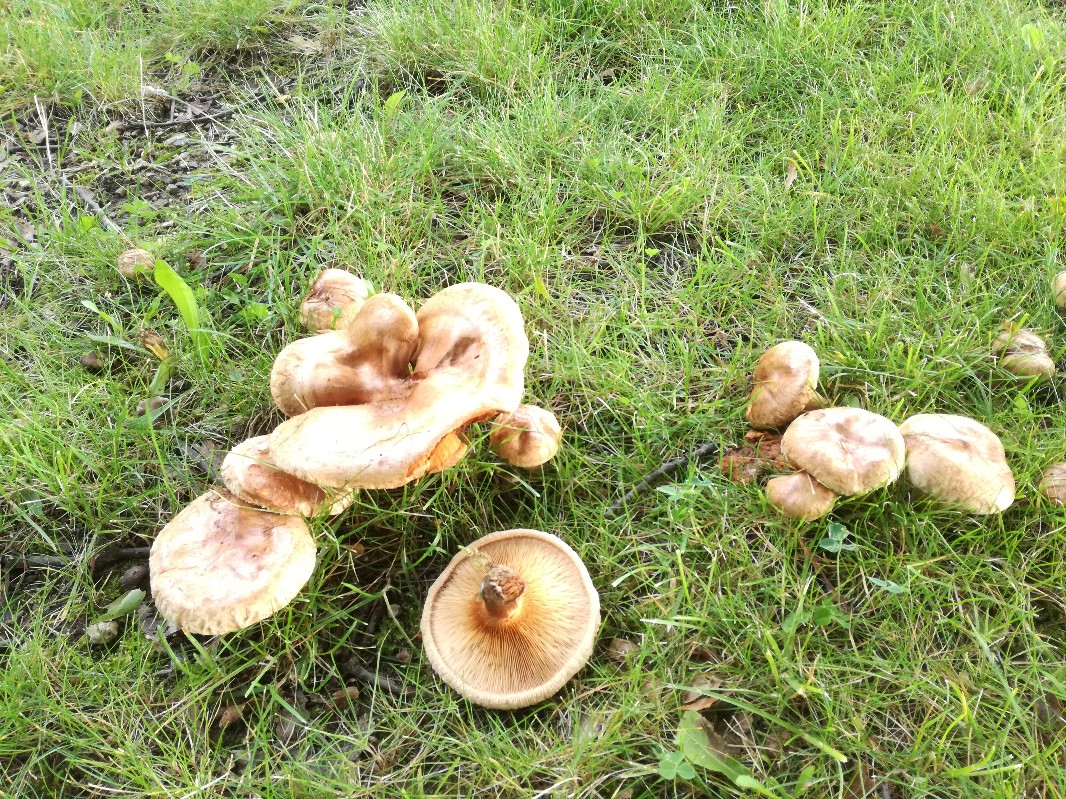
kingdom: Fungi
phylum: Basidiomycota
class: Agaricomycetes
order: Boletales
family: Paxillaceae
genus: Paxillus
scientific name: Paxillus ammoniavirescens
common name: olivensporet netbladhat
